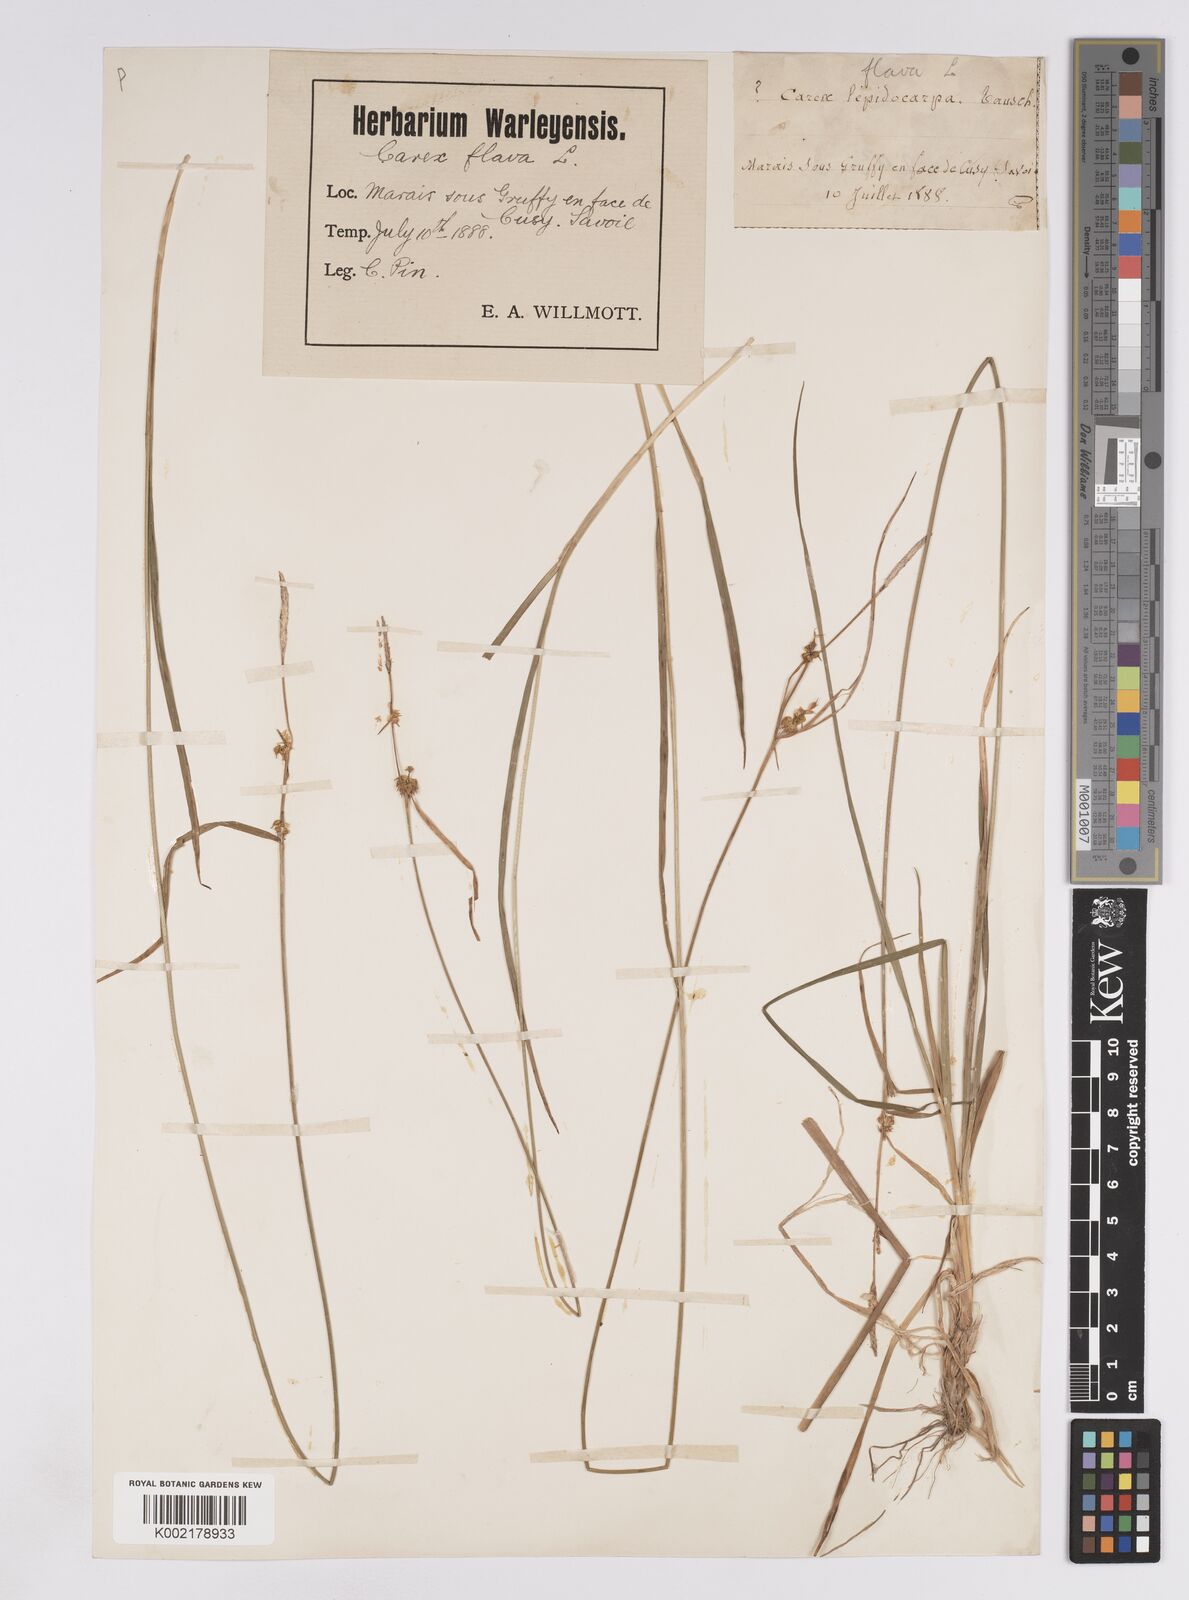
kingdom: Plantae
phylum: Tracheophyta
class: Liliopsida
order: Poales
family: Cyperaceae
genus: Carex
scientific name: Carex lepidocarpa
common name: Long-stalked yellow-sedge
